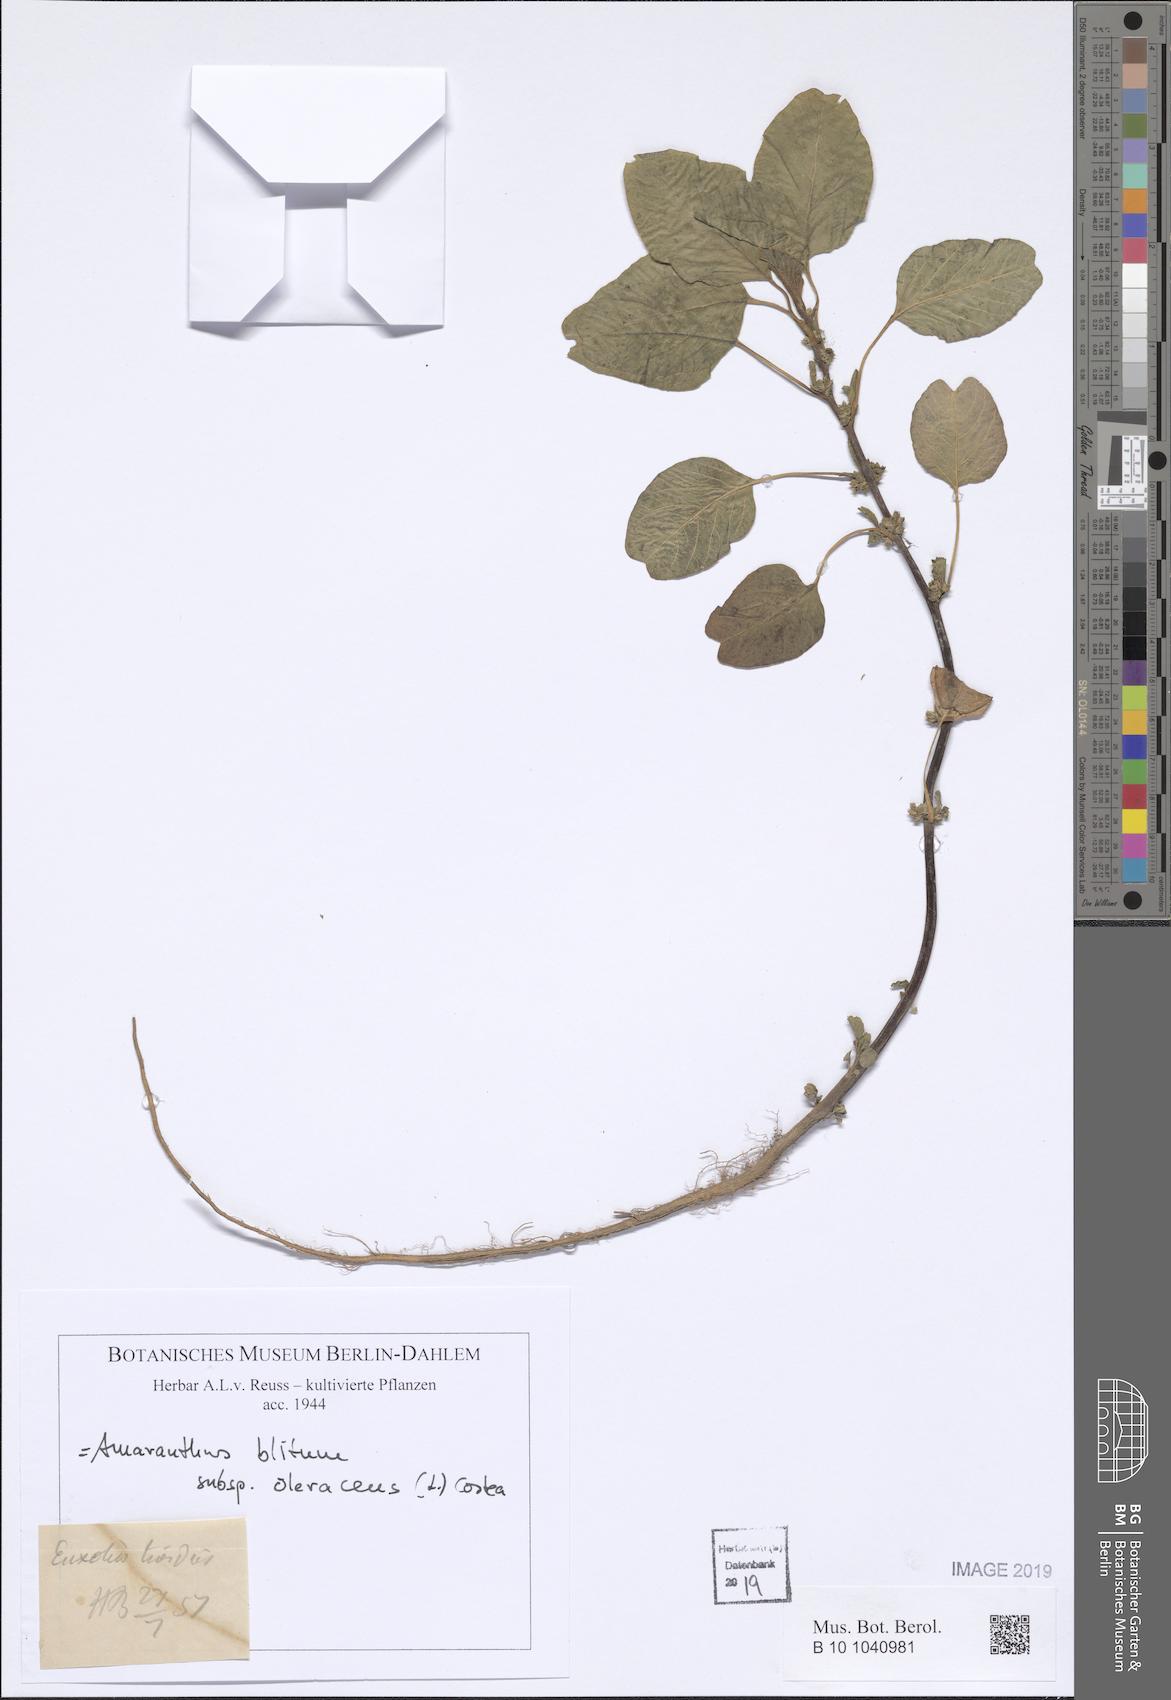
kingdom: Plantae
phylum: Tracheophyta
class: Magnoliopsida
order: Caryophyllales
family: Amaranthaceae
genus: Amaranthus
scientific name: Amaranthus blitum
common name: Purple amaranth
